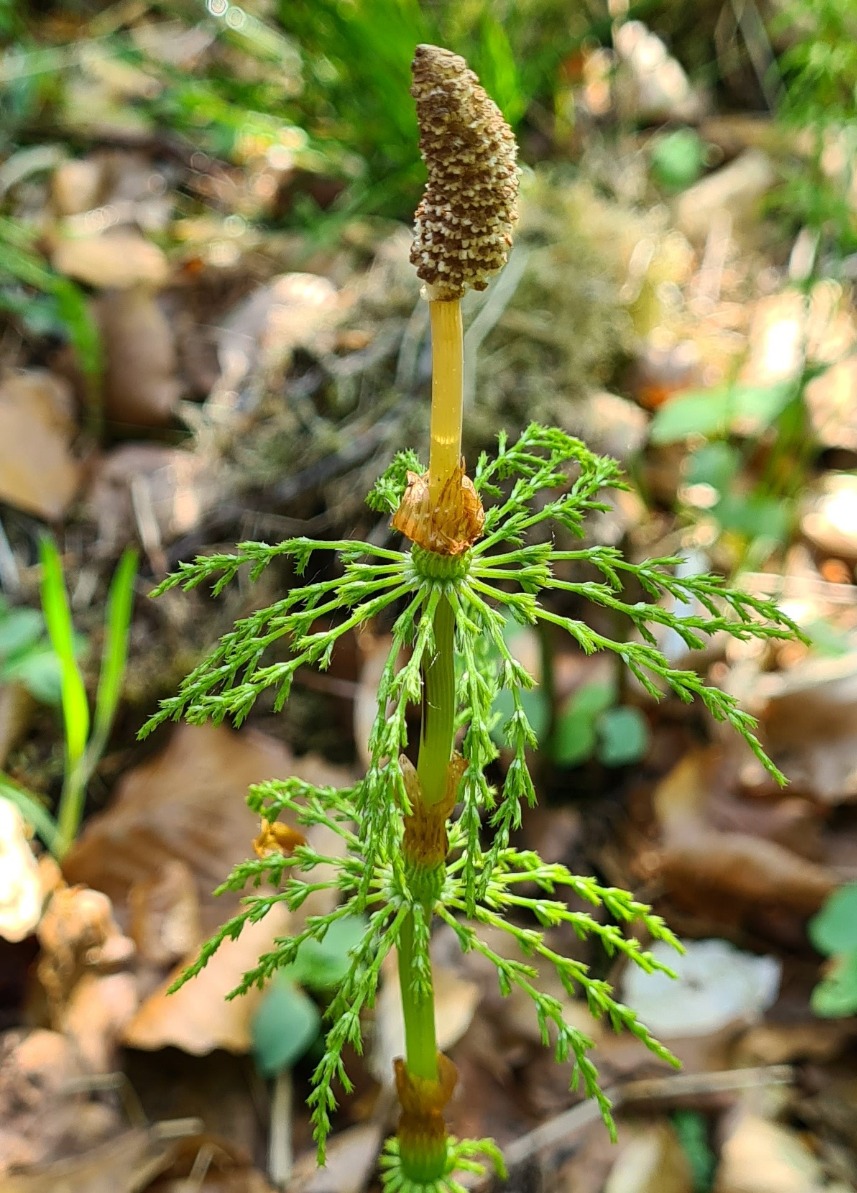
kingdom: Plantae
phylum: Tracheophyta
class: Polypodiopsida
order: Equisetales
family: Equisetaceae
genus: Equisetum
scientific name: Equisetum sylvaticum
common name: Skov-padderok
